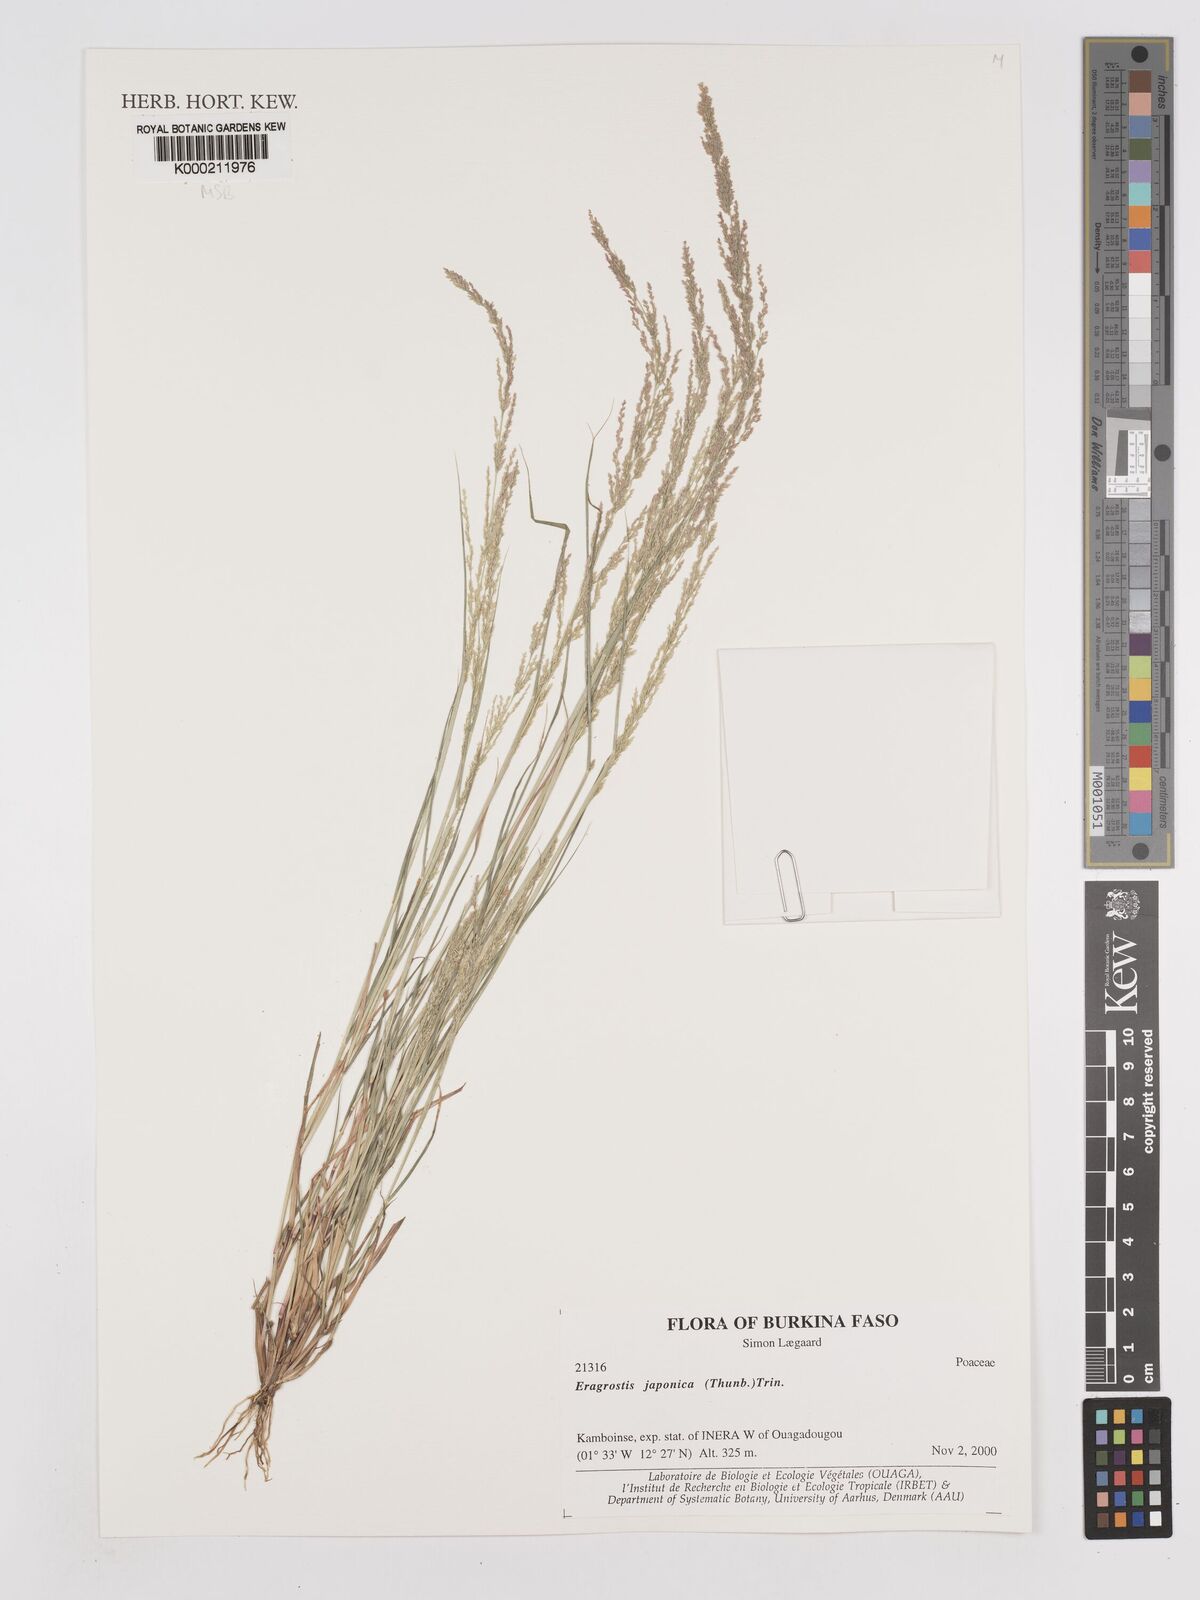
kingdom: Plantae
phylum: Tracheophyta
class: Liliopsida
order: Poales
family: Poaceae
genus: Eragrostis
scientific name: Eragrostis japonica
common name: Pond lovegrass
